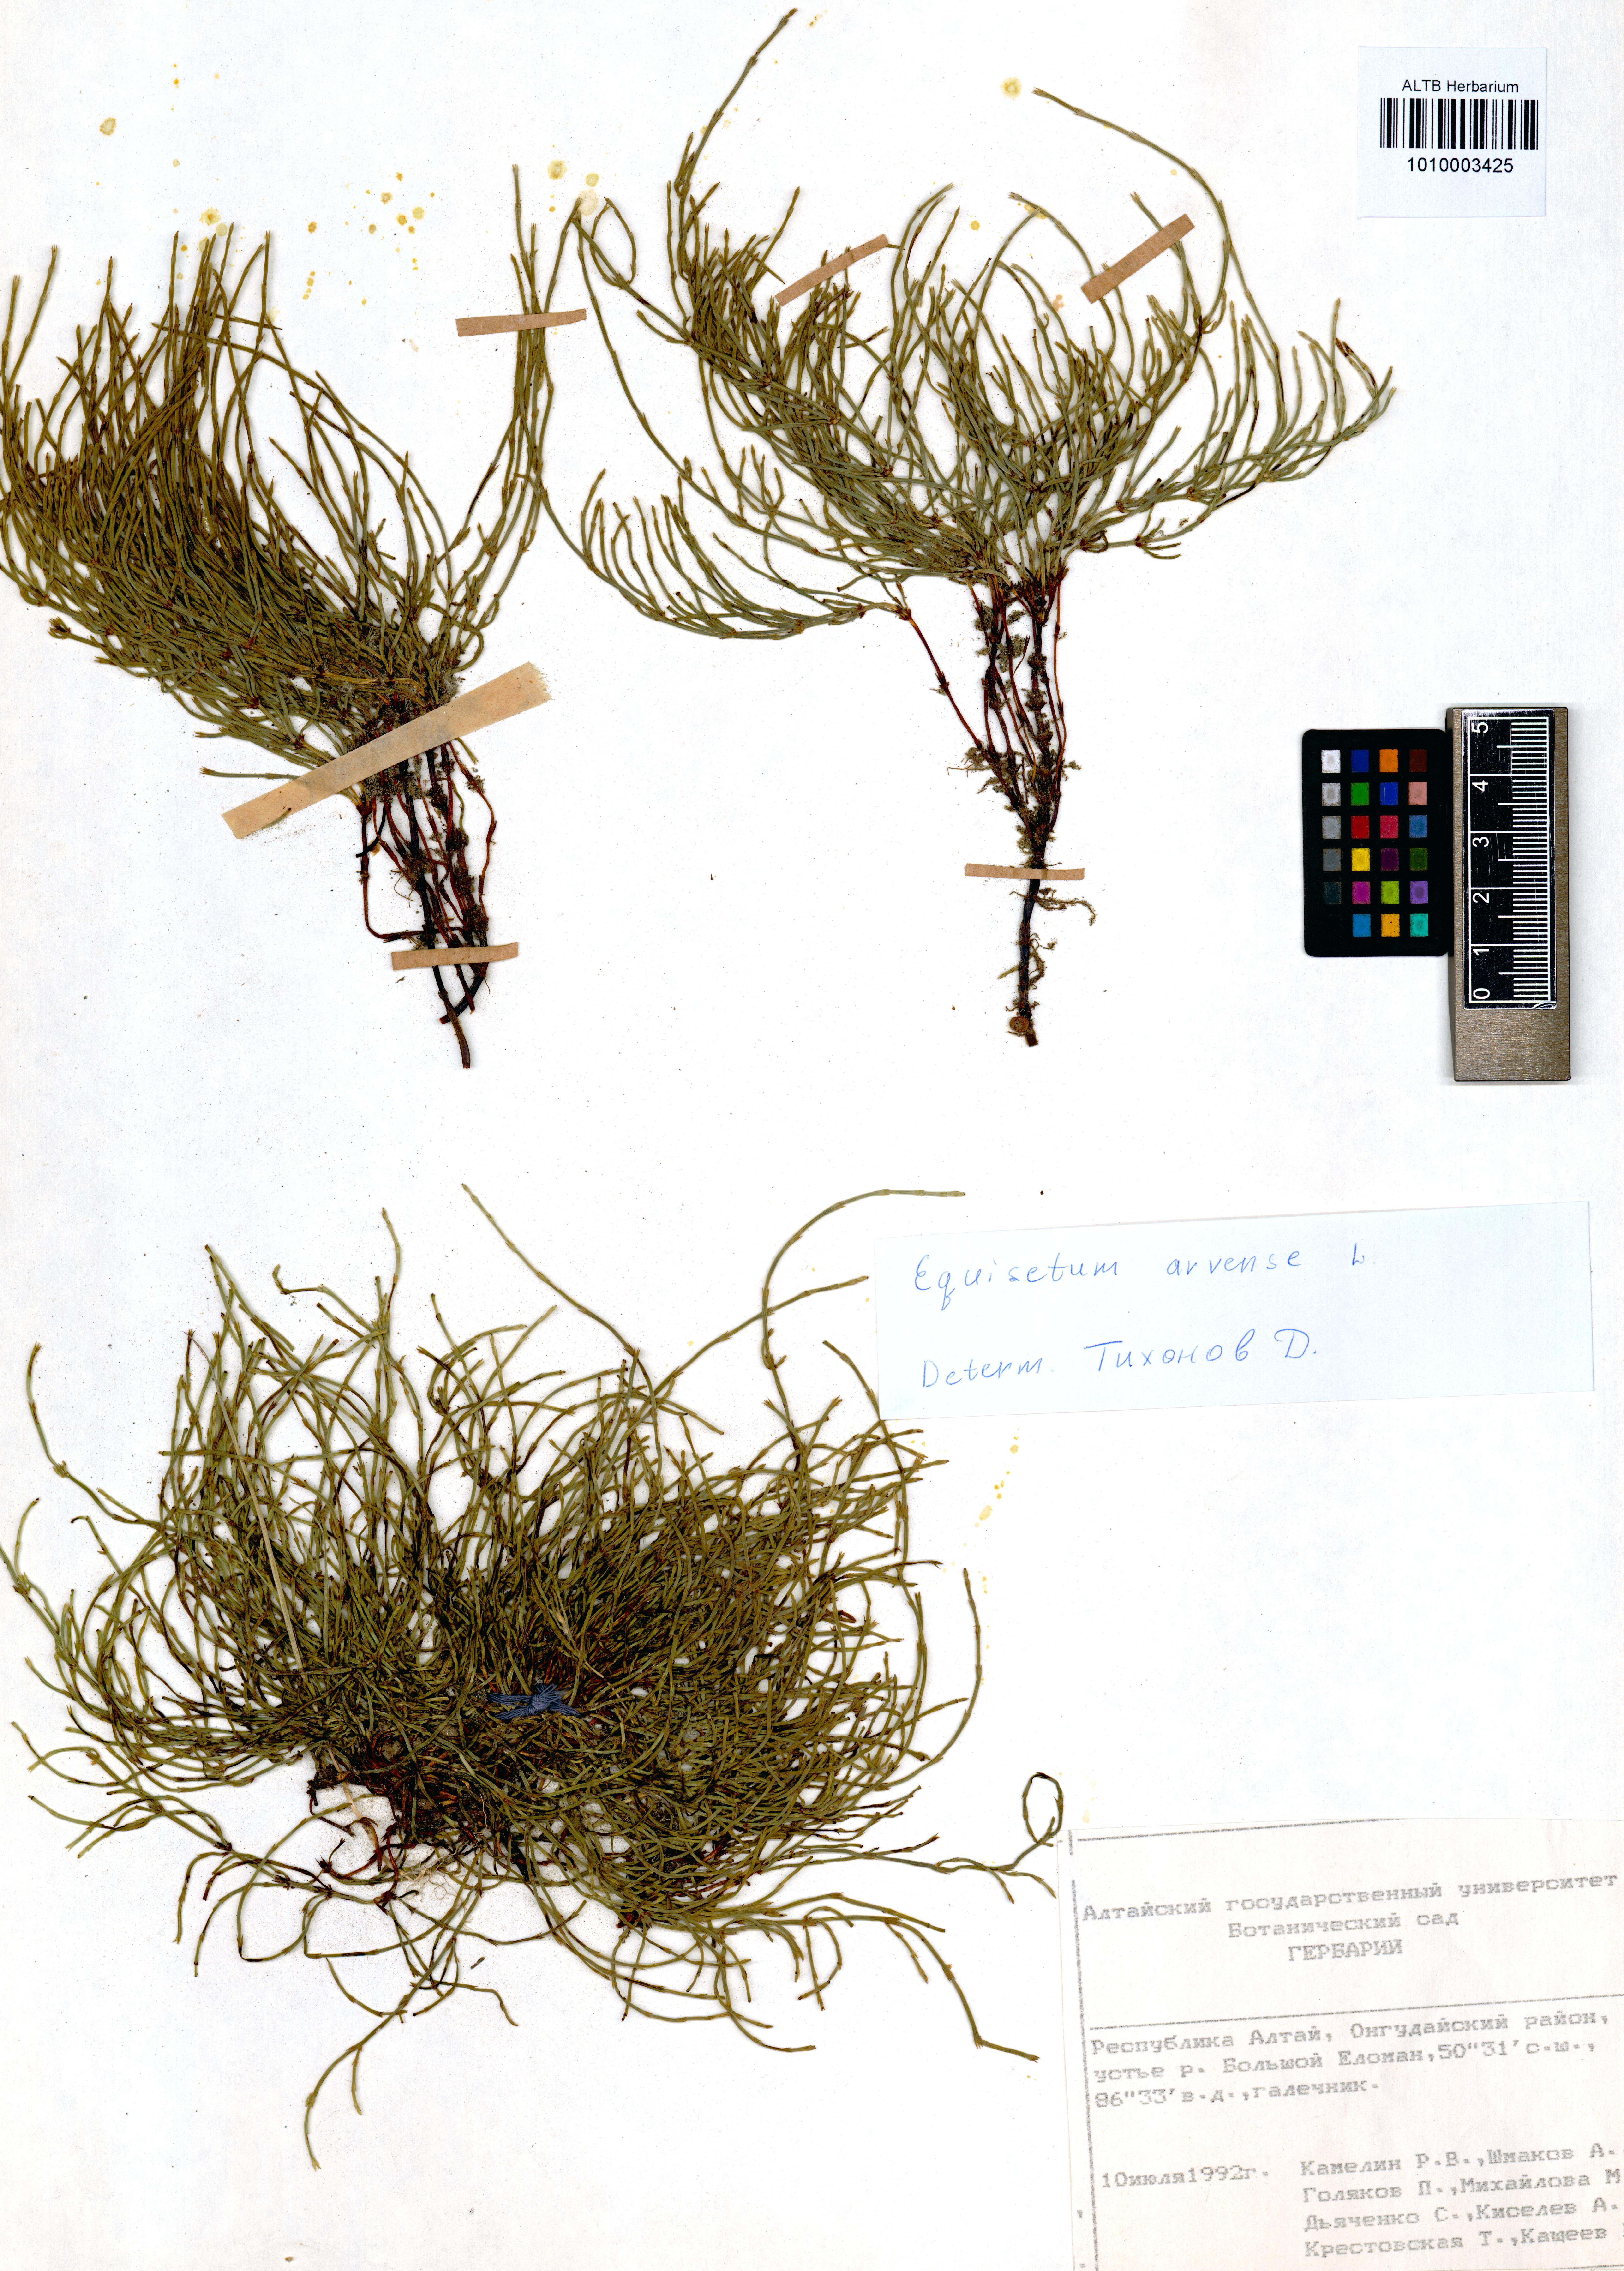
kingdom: Plantae
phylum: Tracheophyta
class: Polypodiopsida
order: Equisetales
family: Equisetaceae
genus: Equisetum
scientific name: Equisetum arvense
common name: Field horsetail
